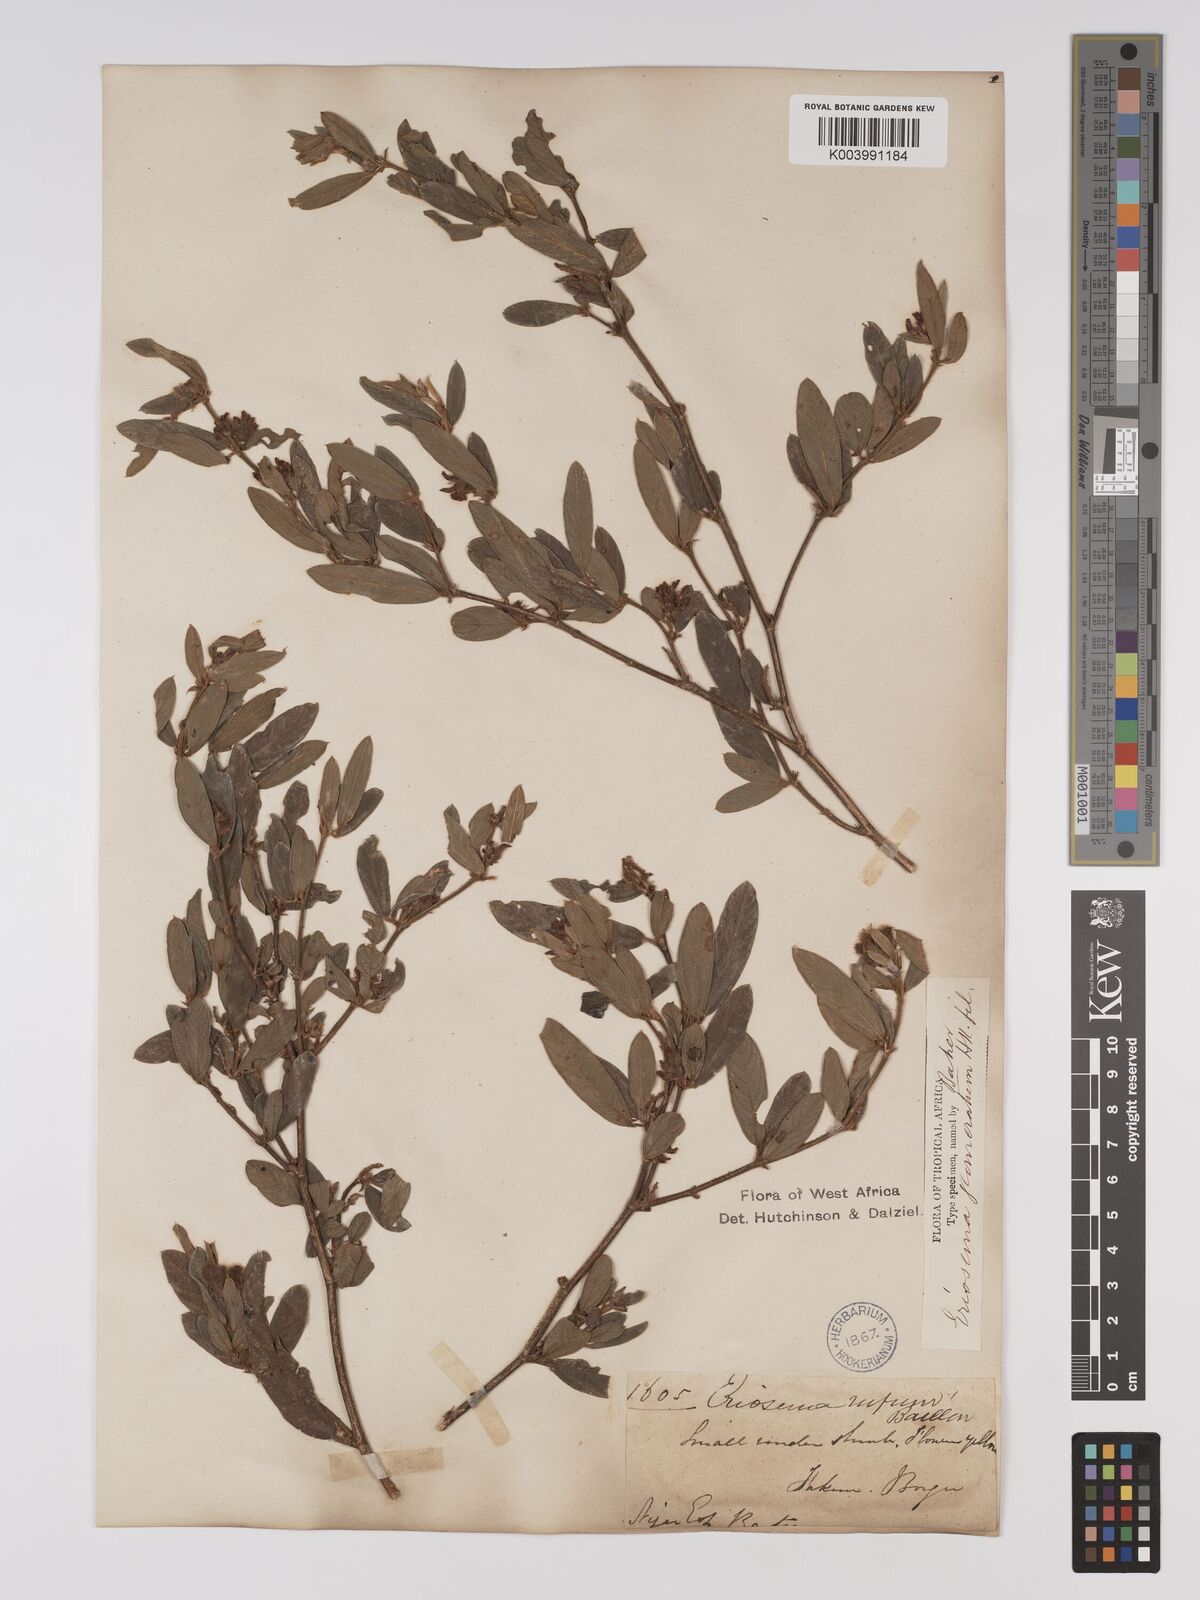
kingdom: Plantae
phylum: Tracheophyta
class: Magnoliopsida
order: Fabales
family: Fabaceae
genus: Eriosema
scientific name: Eriosema glomeratum
